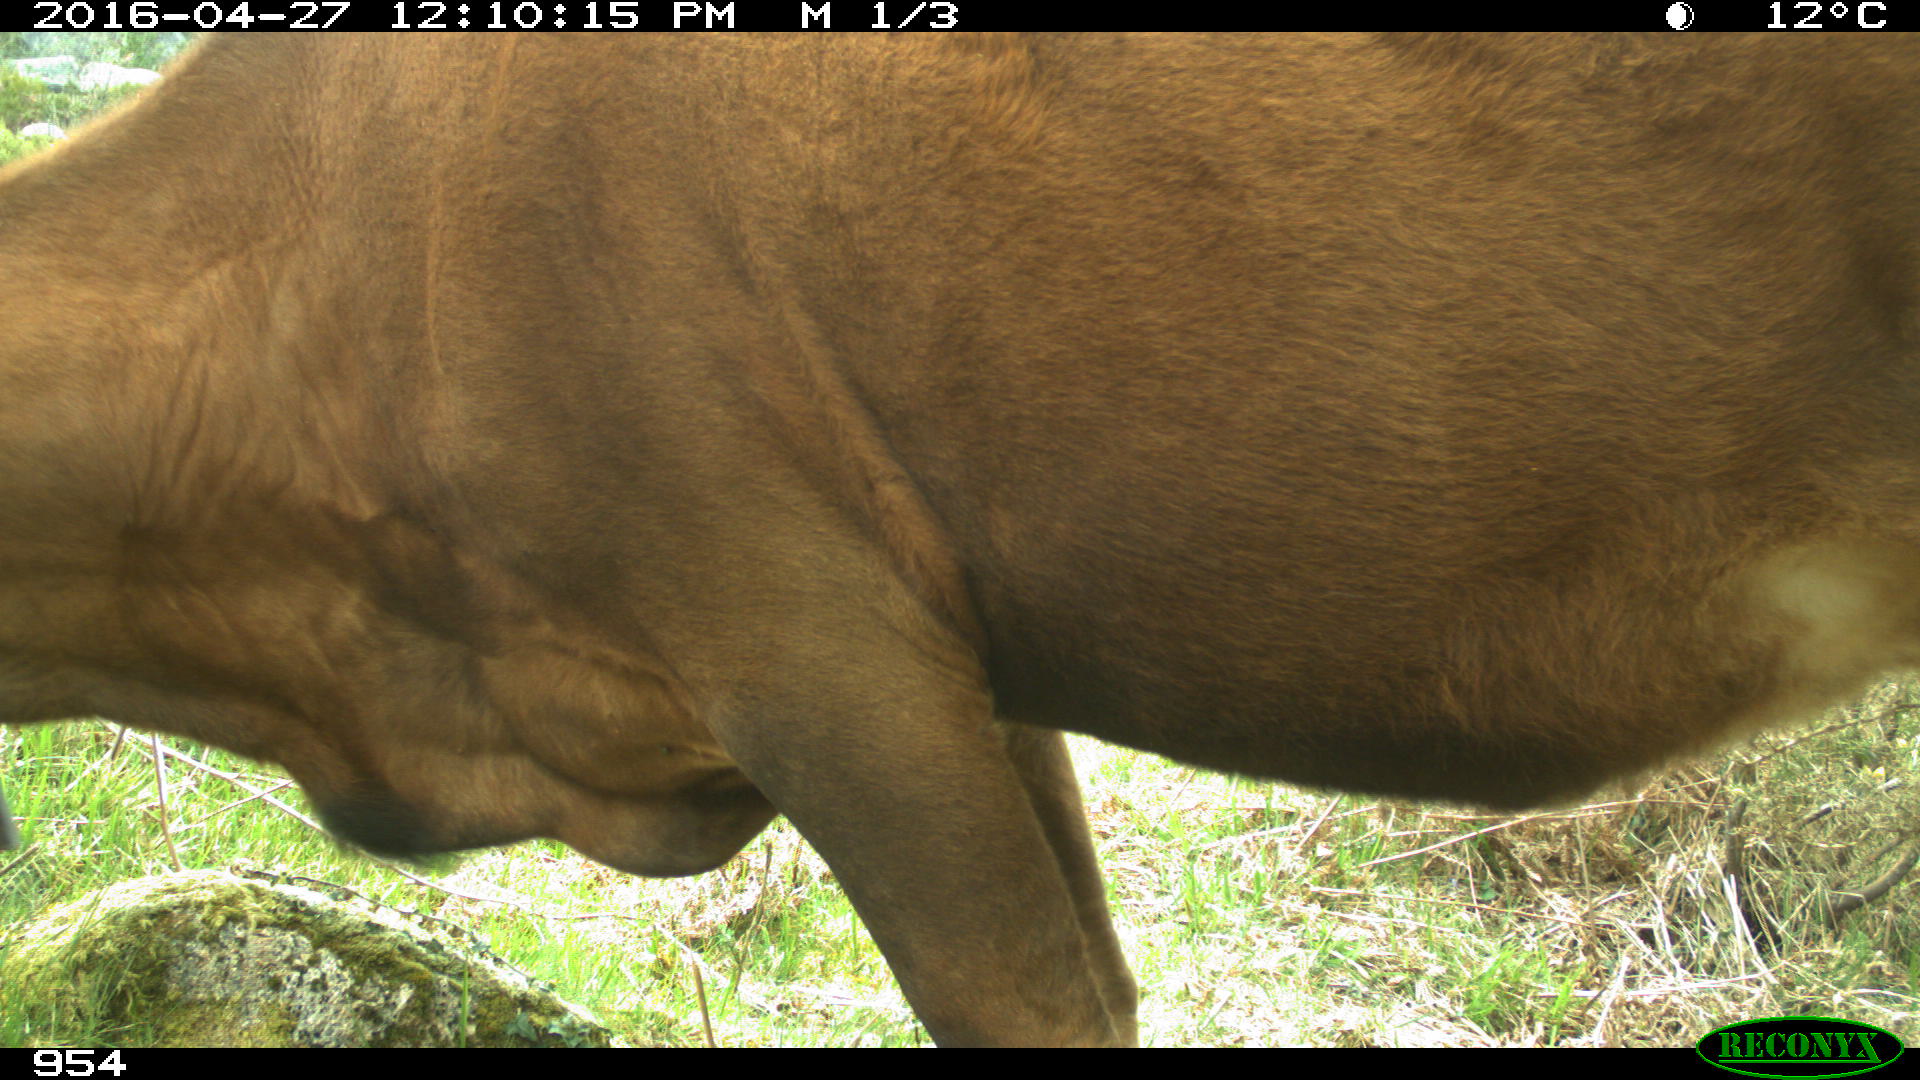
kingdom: Animalia
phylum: Chordata
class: Mammalia
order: Artiodactyla
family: Bovidae
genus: Bos
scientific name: Bos taurus
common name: Domesticated cattle
